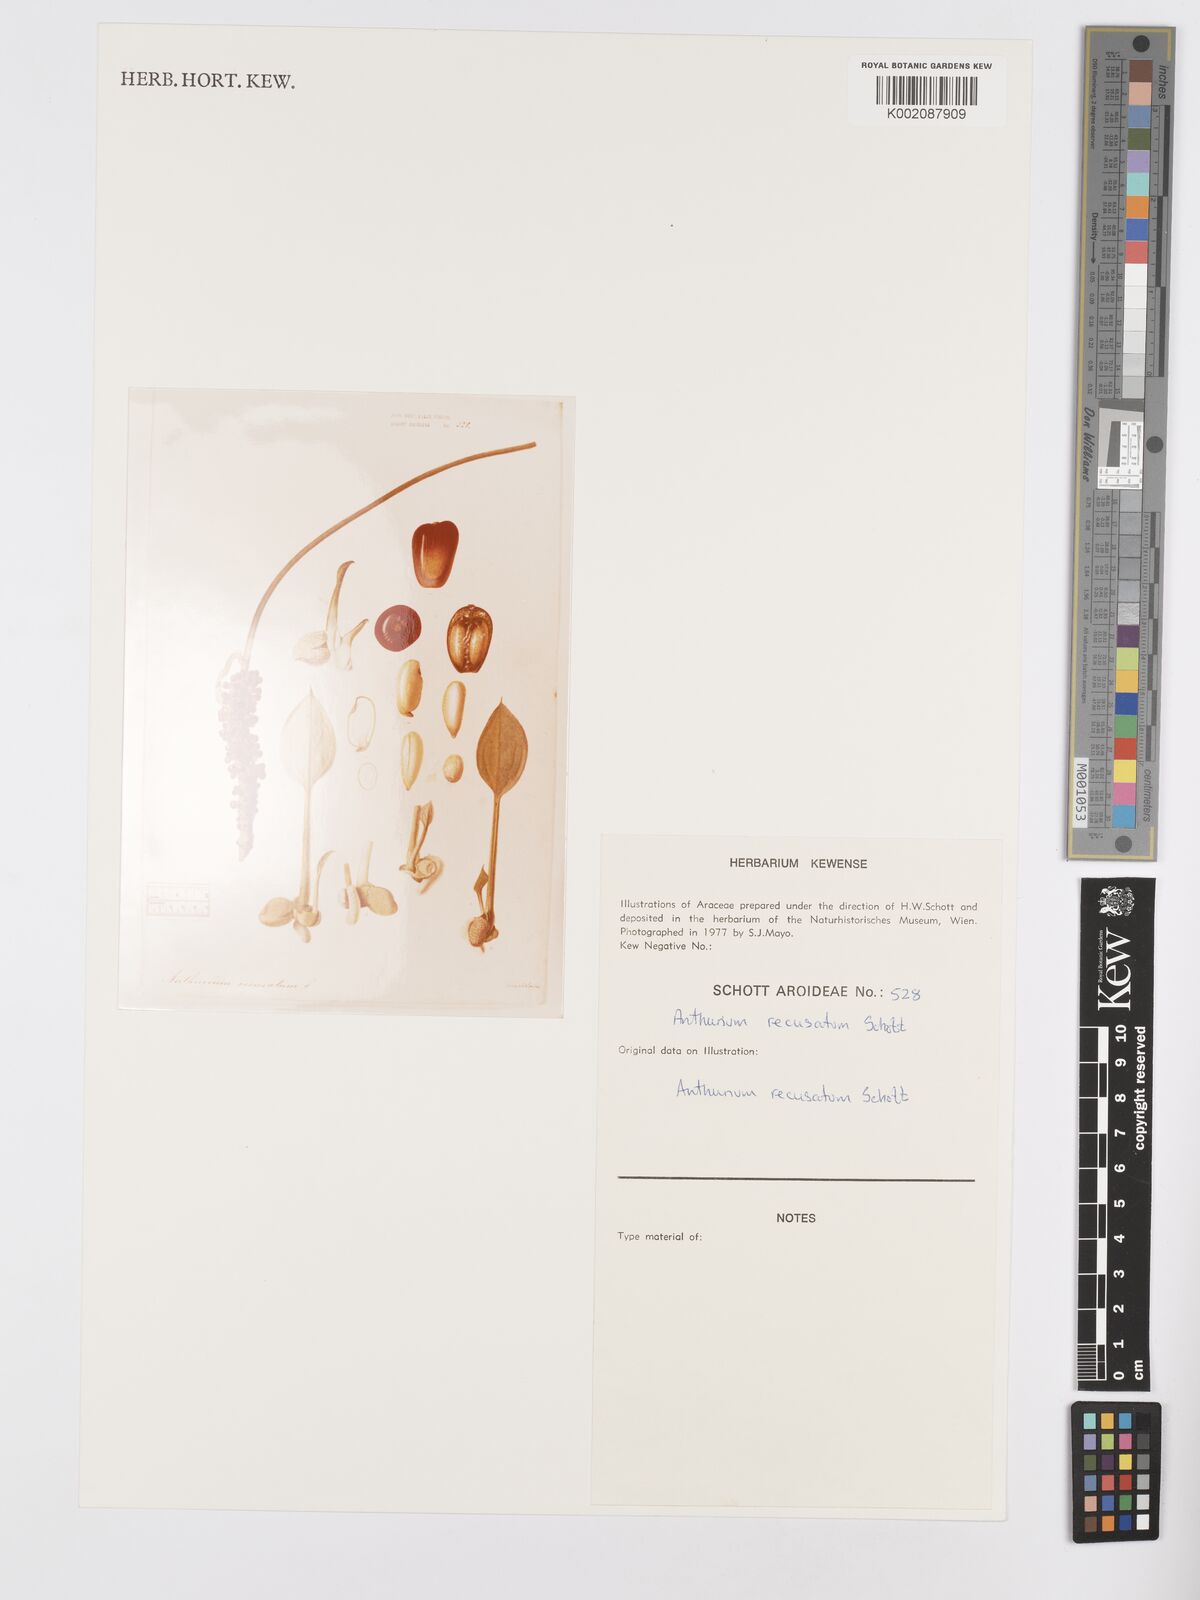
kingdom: Plantae
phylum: Tracheophyta
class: Liliopsida
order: Alismatales
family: Araceae
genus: Anthurium
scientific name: Anthurium fendleri
